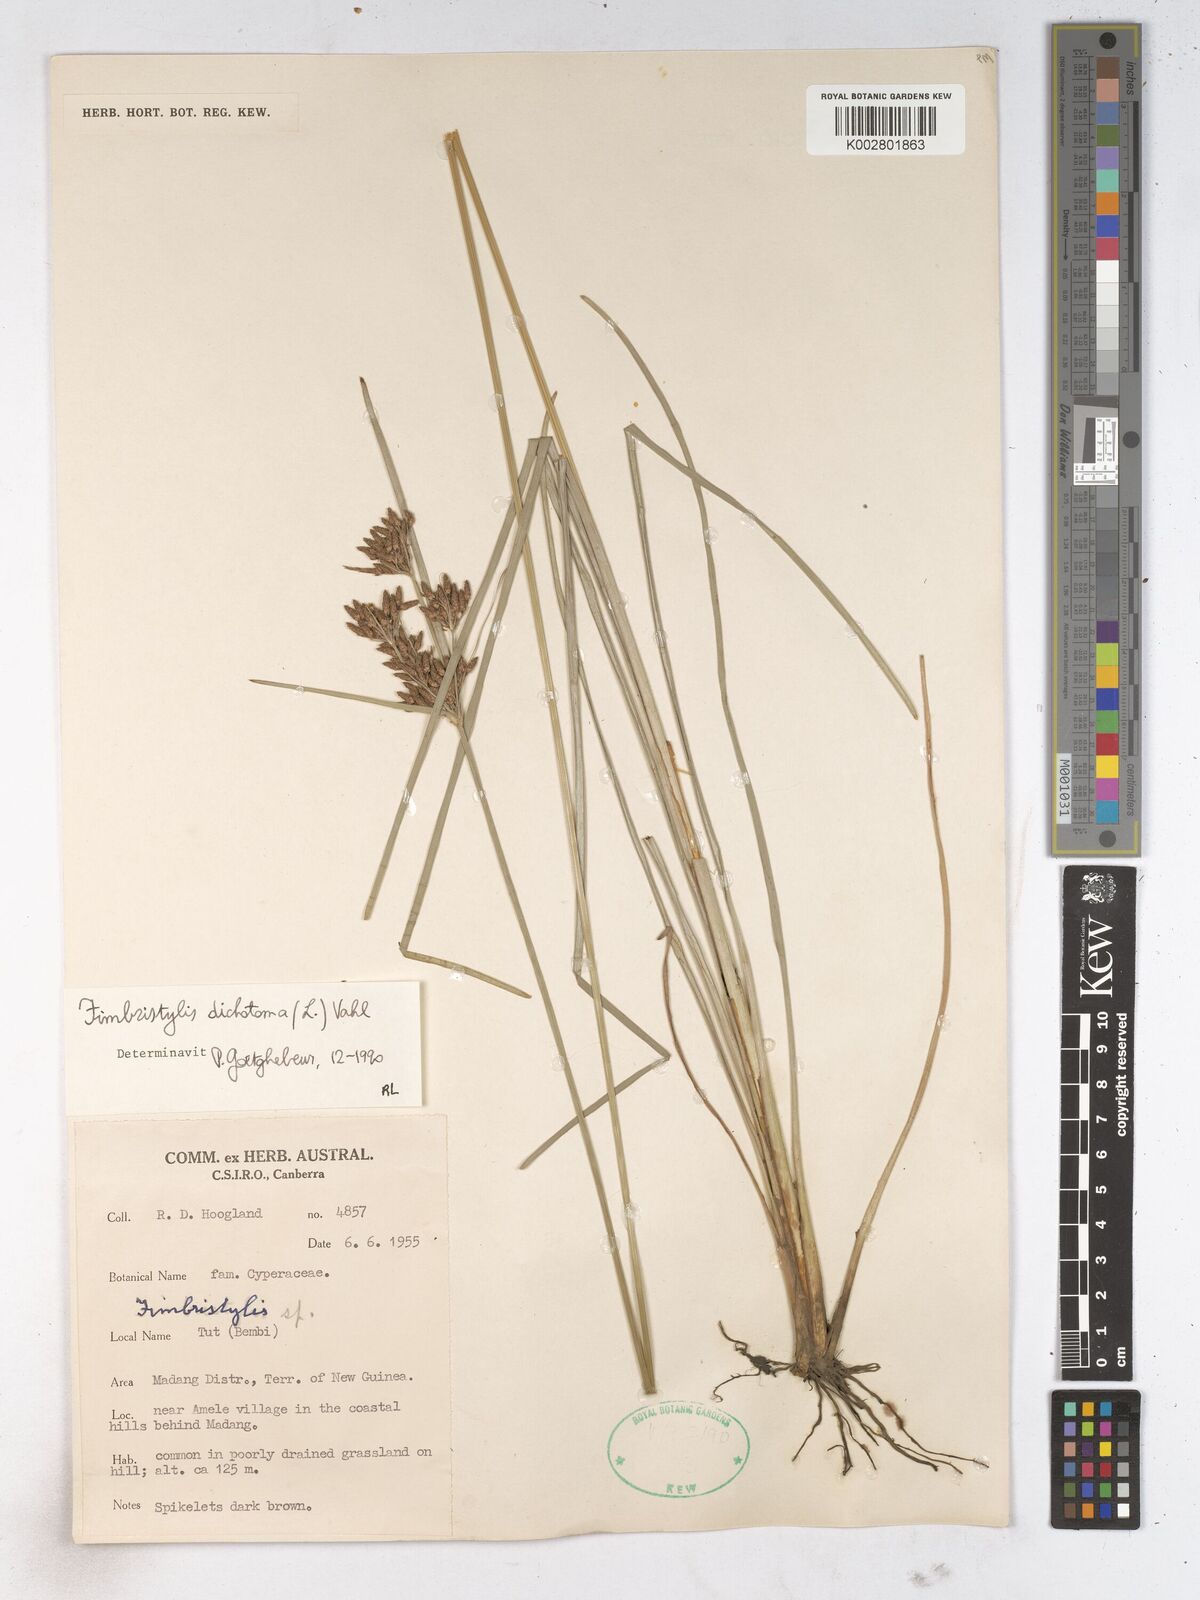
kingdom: Plantae
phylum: Tracheophyta
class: Liliopsida
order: Poales
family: Cyperaceae
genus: Fimbristylis
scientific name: Fimbristylis dichotoma
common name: Forked fimbry
